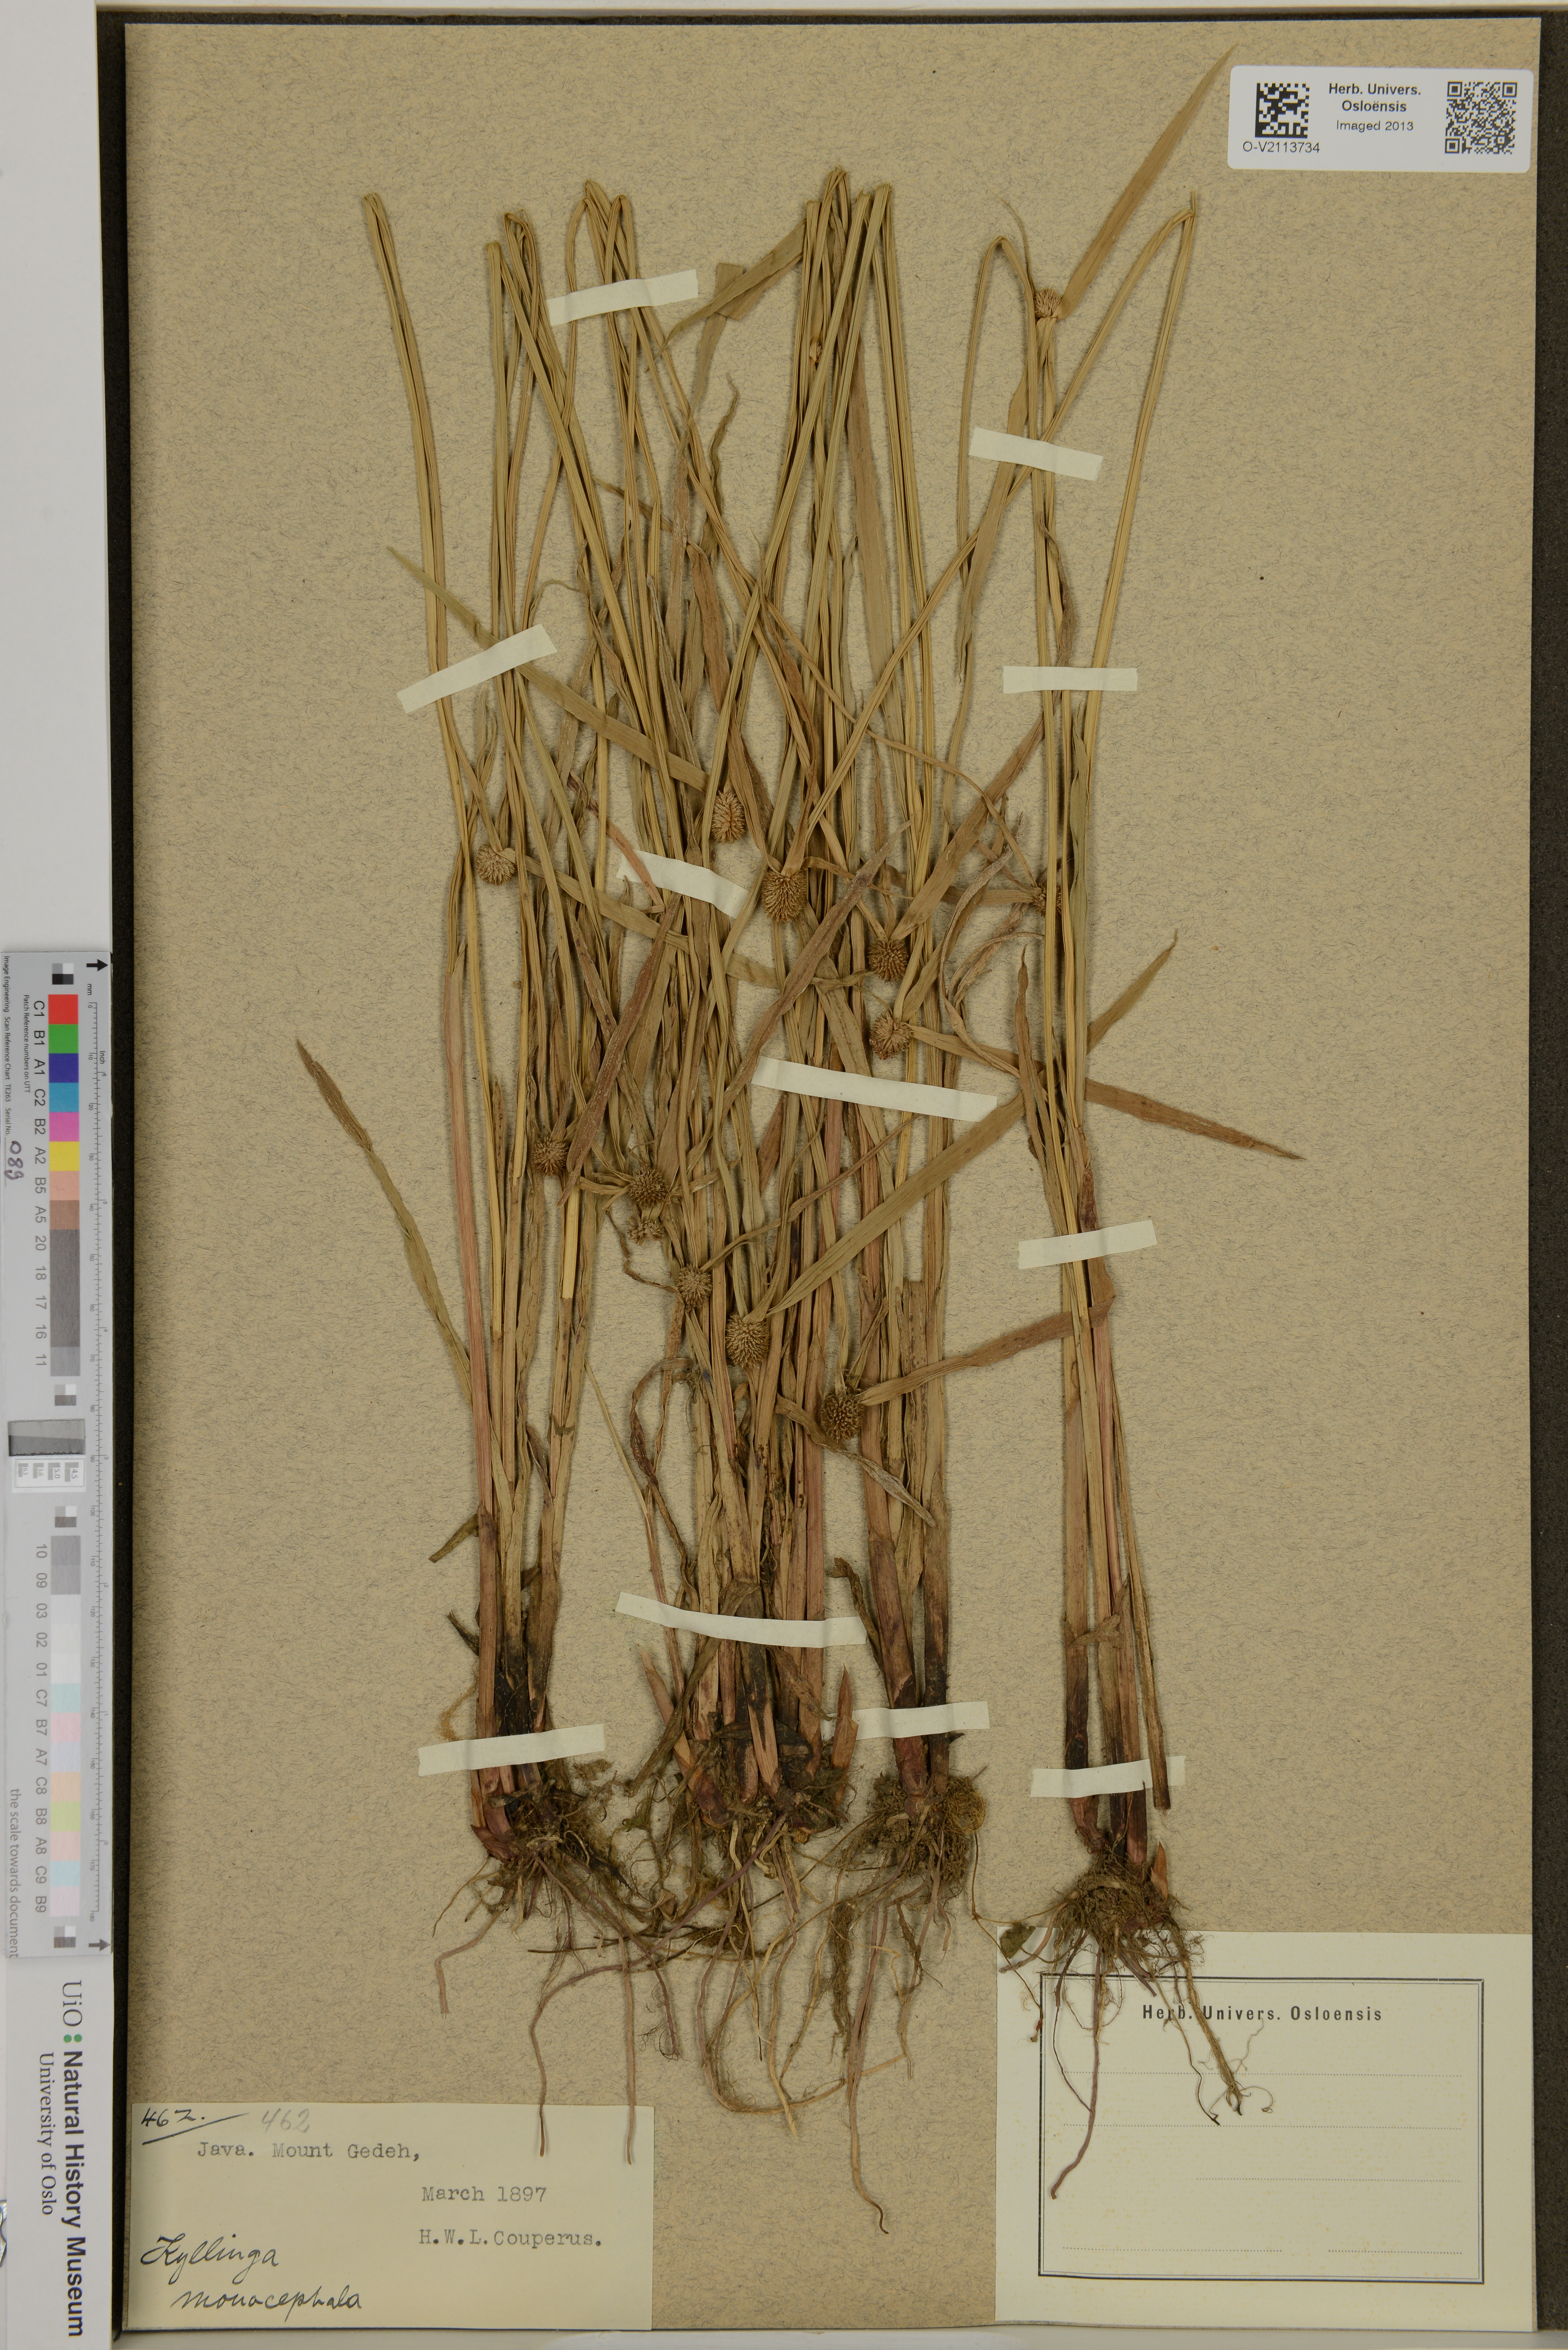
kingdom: Plantae
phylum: Tracheophyta
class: Liliopsida
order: Poales
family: Cyperaceae
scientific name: Cyperaceae
